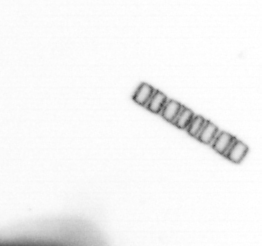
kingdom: Chromista
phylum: Ochrophyta
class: Bacillariophyceae
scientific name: Bacillariophyceae
